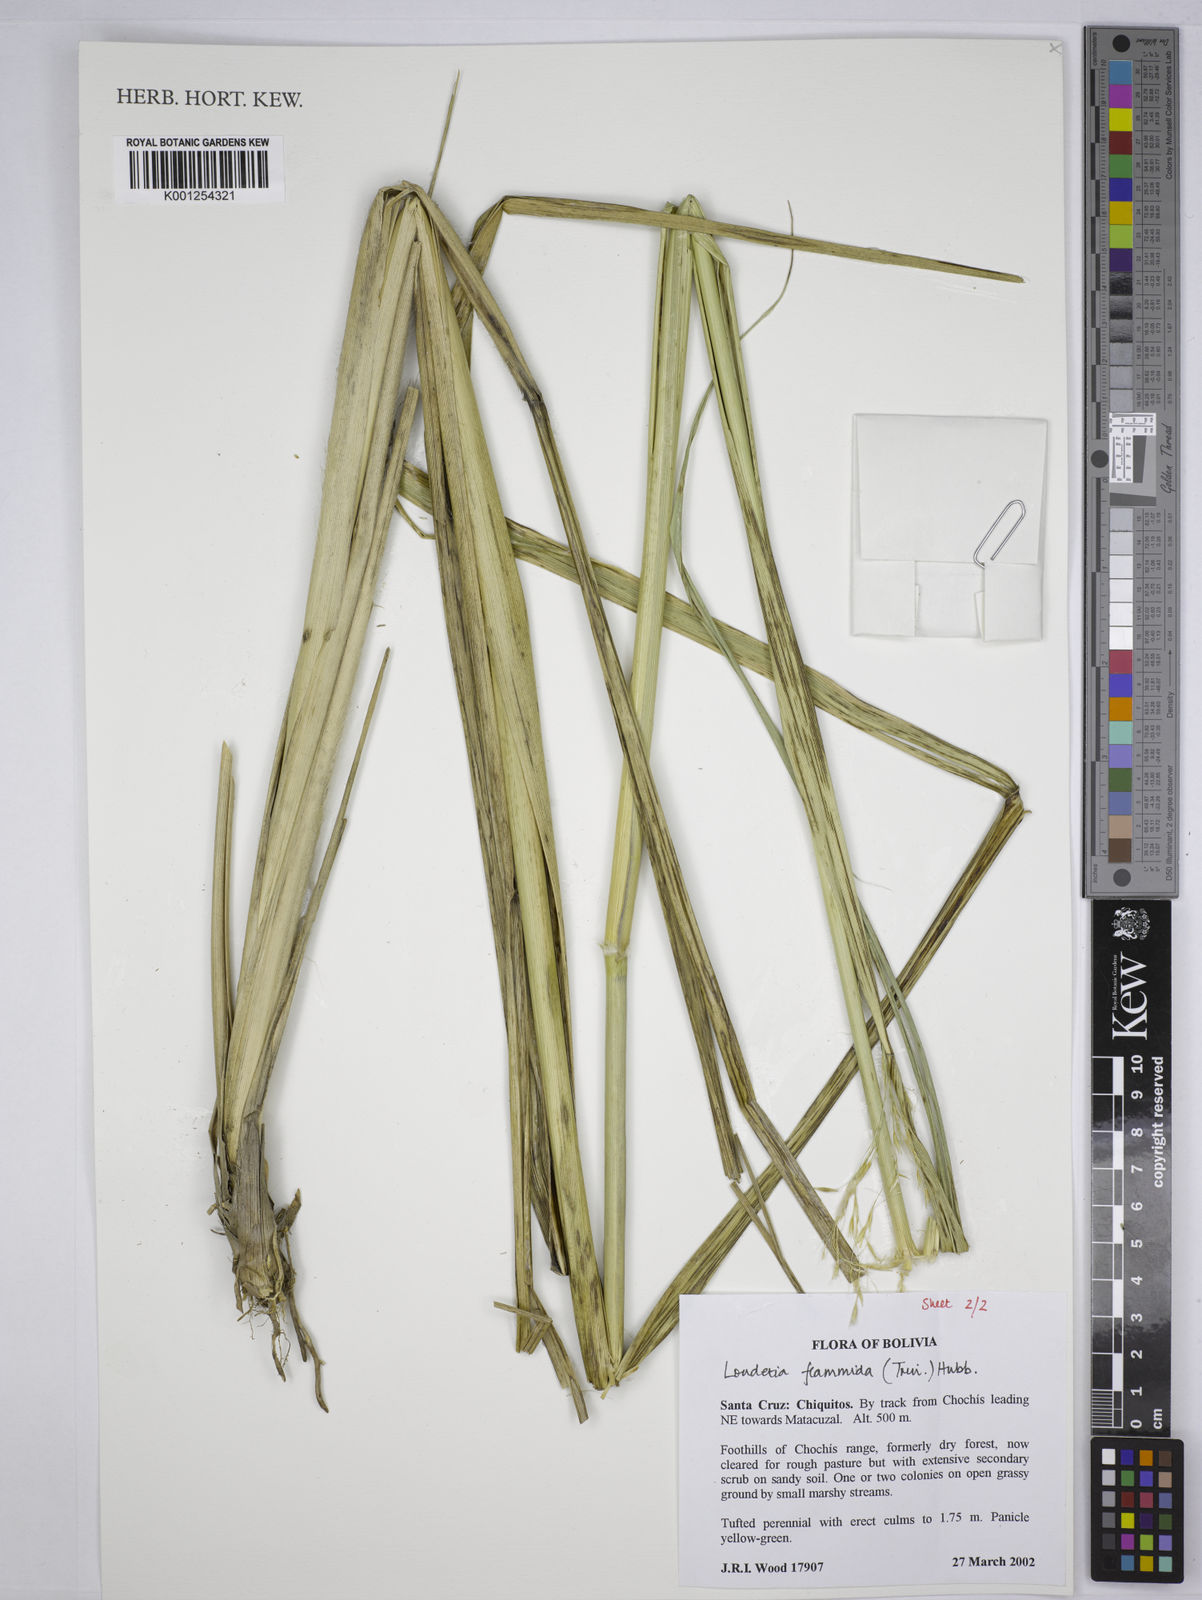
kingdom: Plantae
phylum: Tracheophyta
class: Liliopsida
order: Poales
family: Poaceae
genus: Loudetia
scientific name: Loudetia flammida
